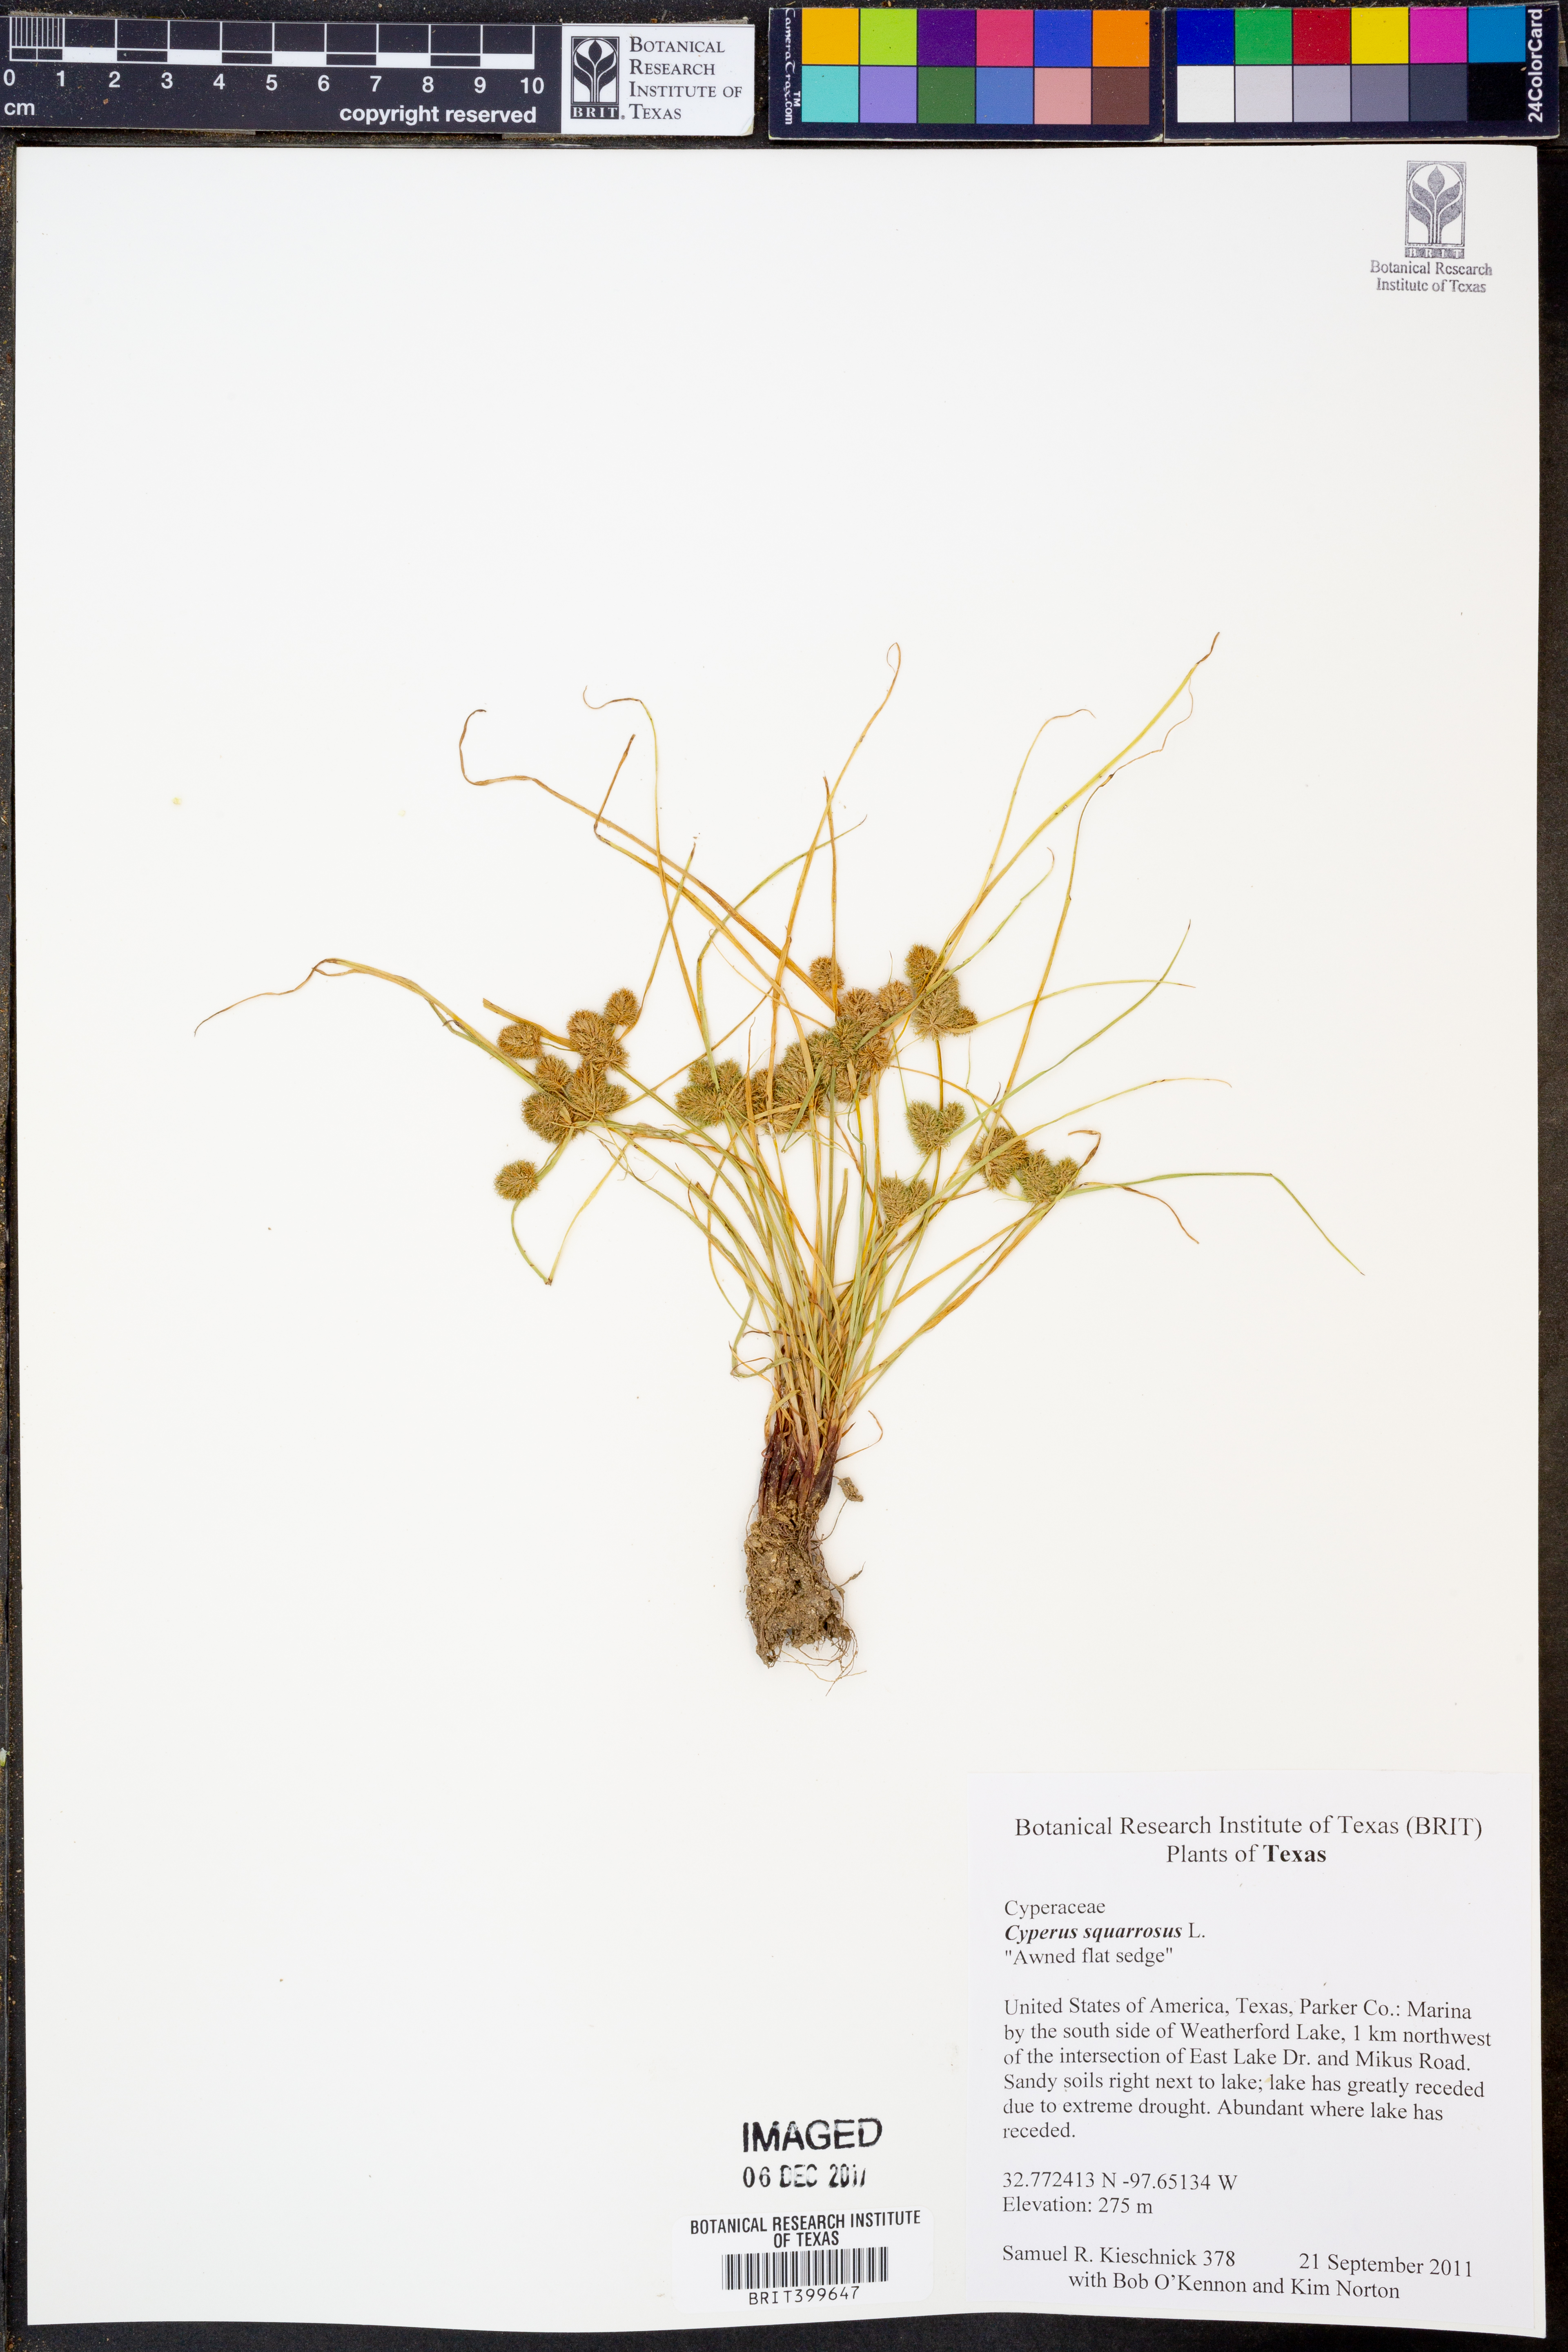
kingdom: Plantae
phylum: Tracheophyta
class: Liliopsida
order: Poales
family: Cyperaceae
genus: Cyperus
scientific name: Cyperus squarrosus
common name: Awned cyperus
